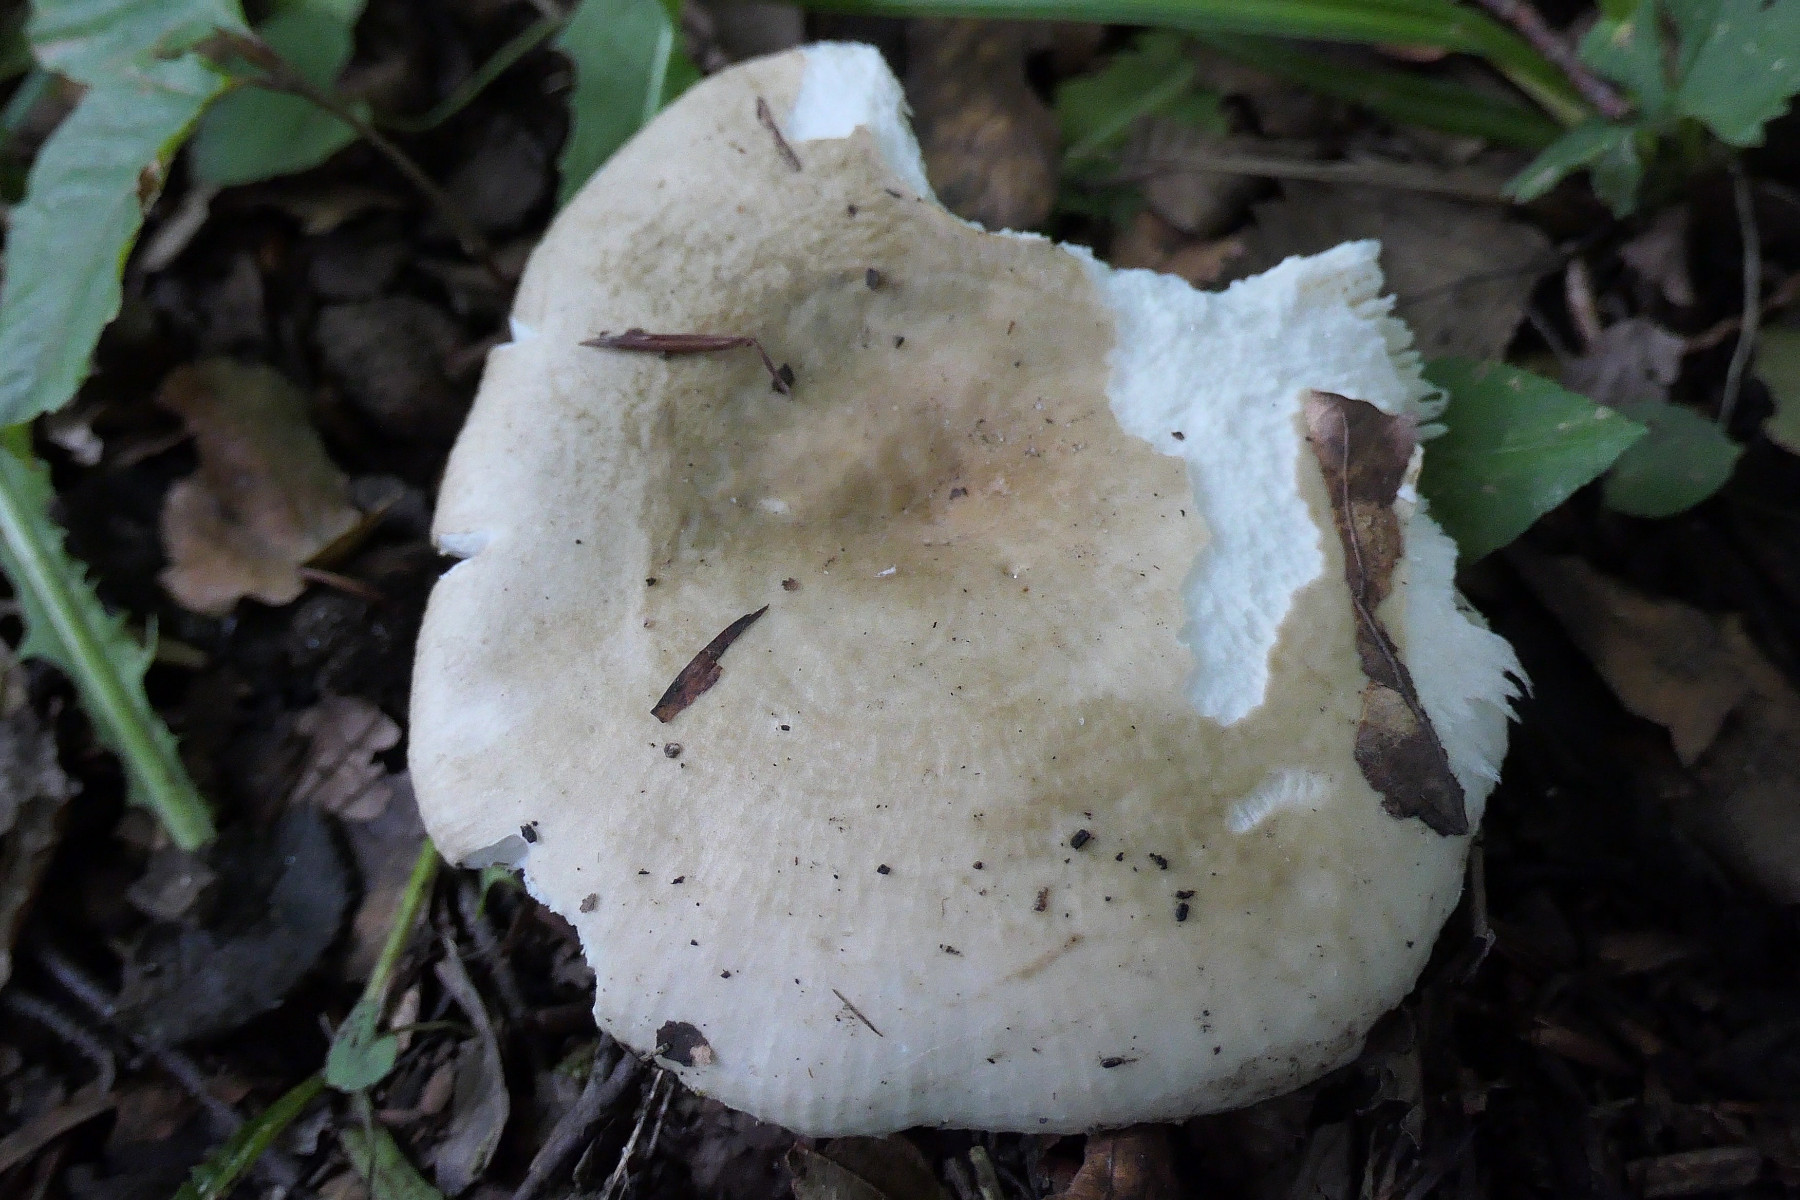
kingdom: Fungi
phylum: Basidiomycota
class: Agaricomycetes
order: Russulales
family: Russulaceae
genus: Russula
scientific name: Russula faustiana
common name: olivengrå skørhat
